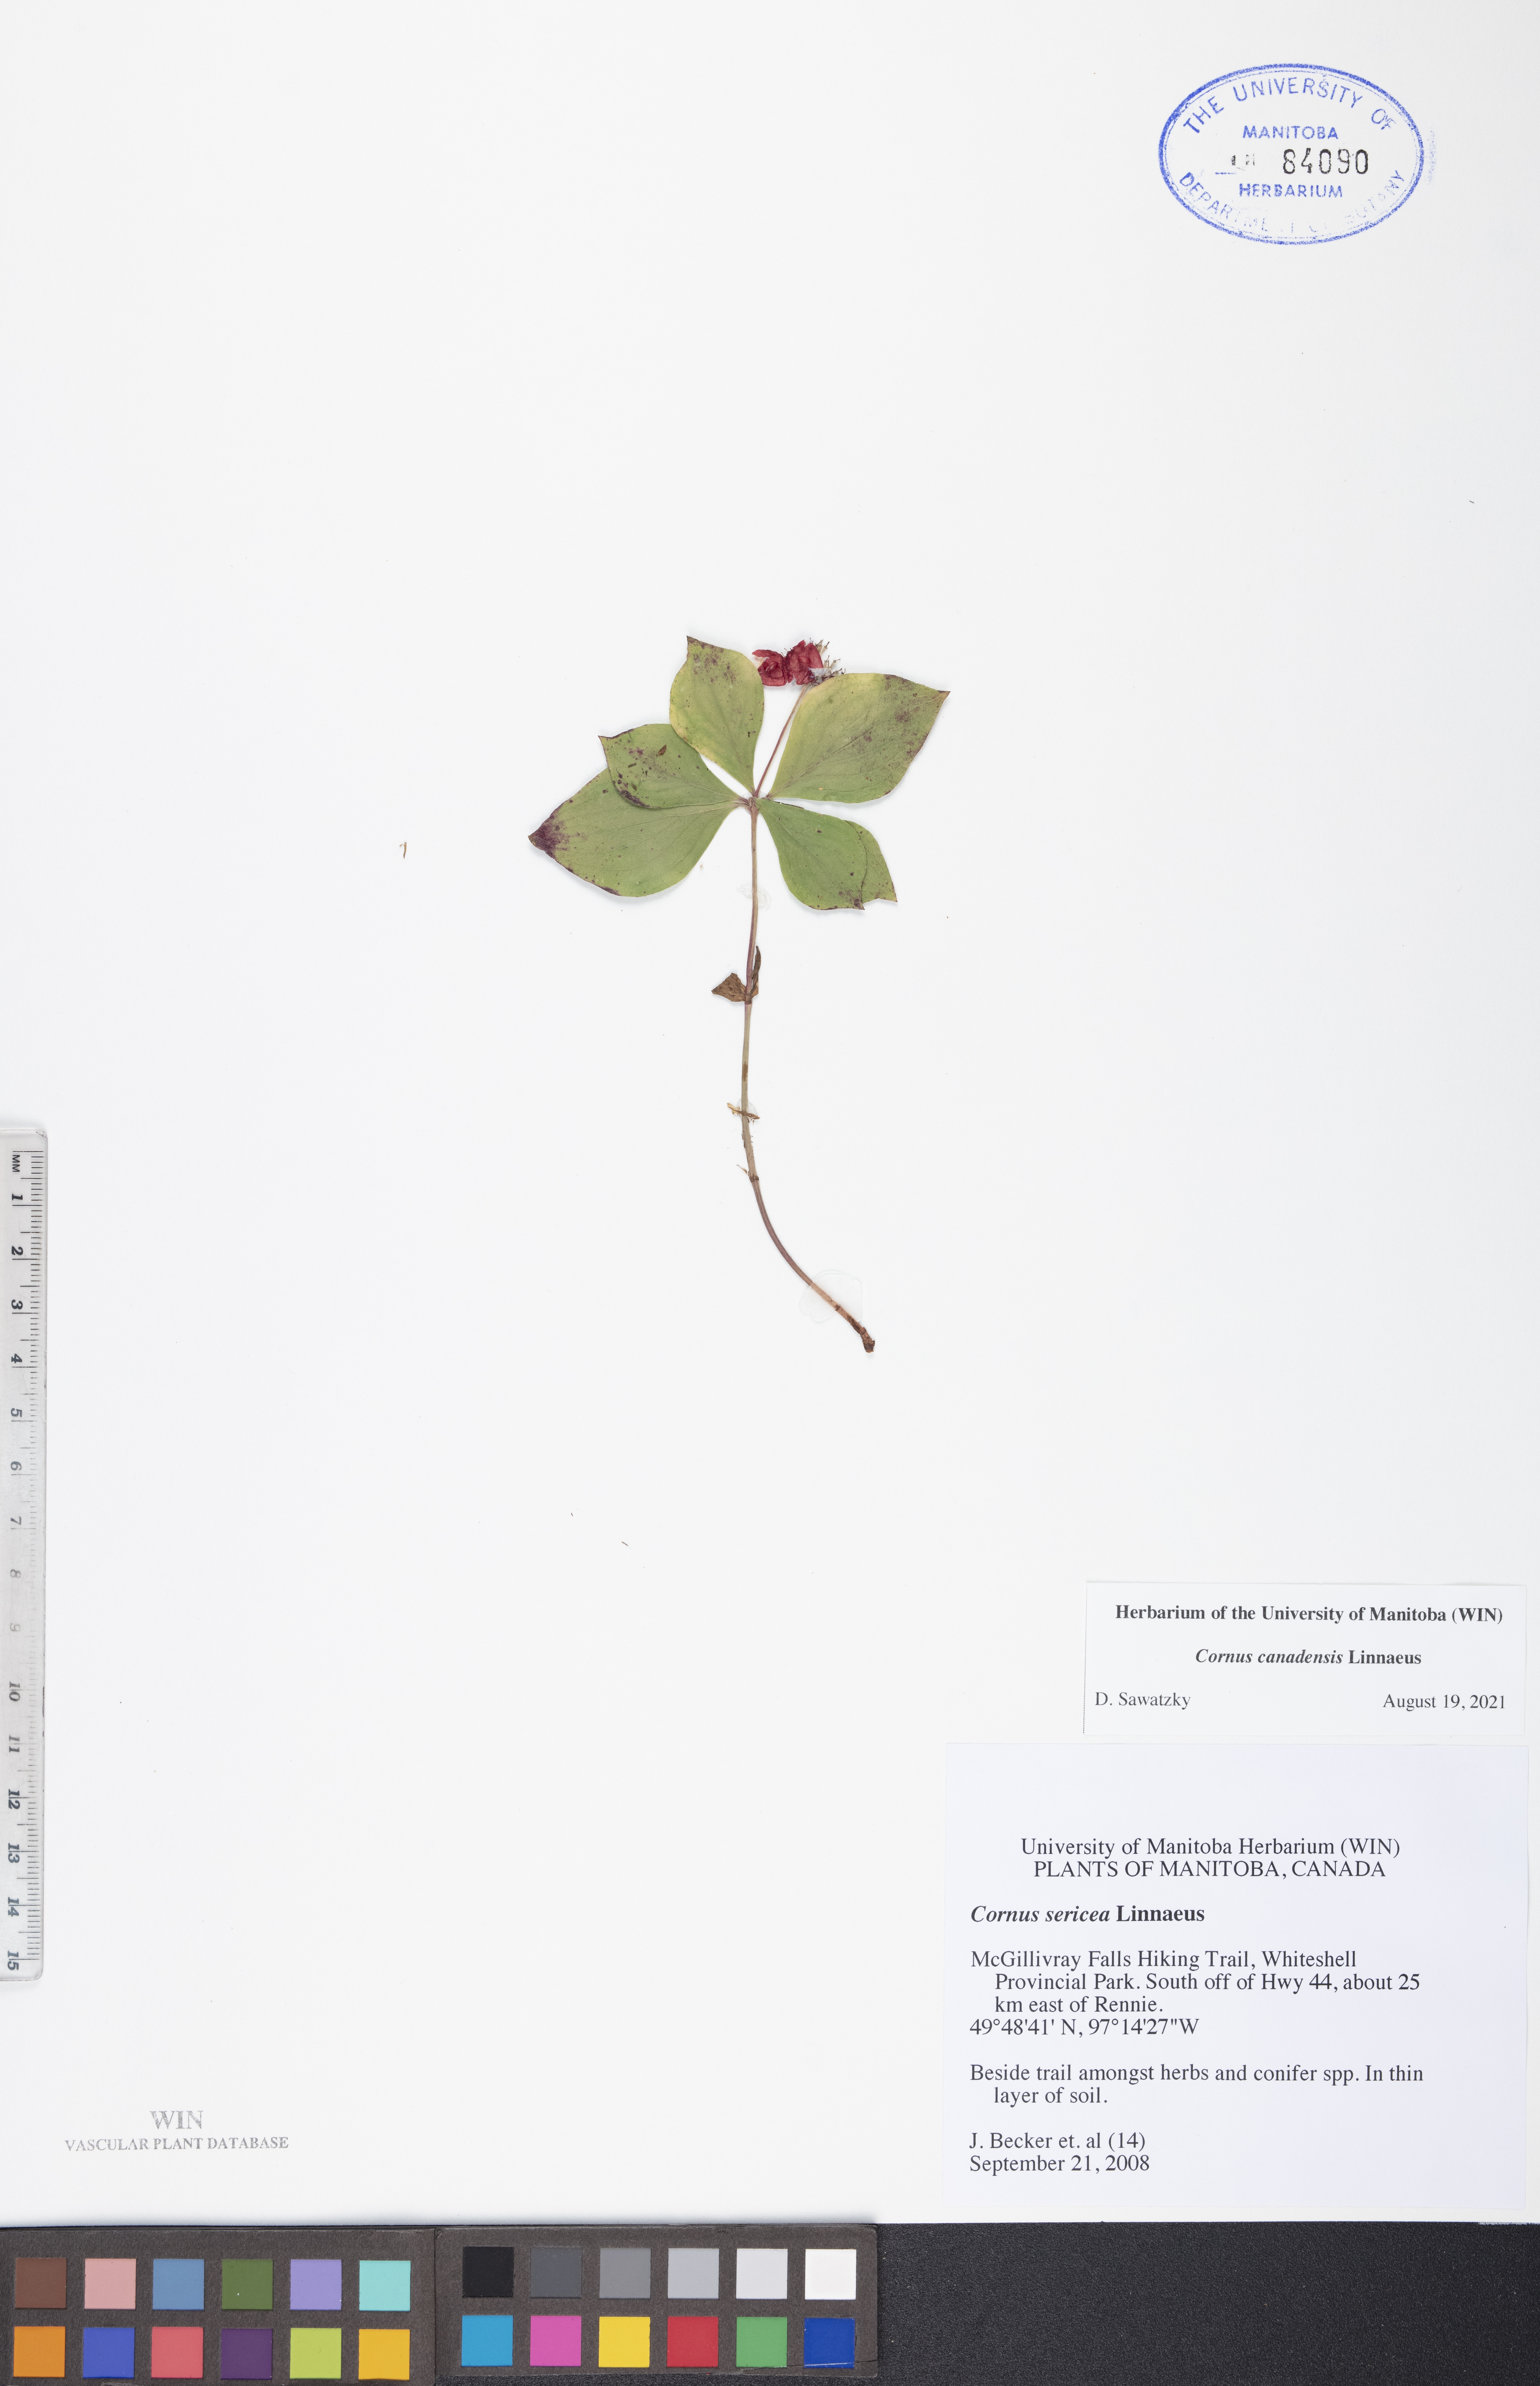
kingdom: Plantae
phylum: Tracheophyta
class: Magnoliopsida
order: Cornales
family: Cornaceae
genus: Cornus
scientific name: Cornus canadensis
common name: Creeping dogwood
